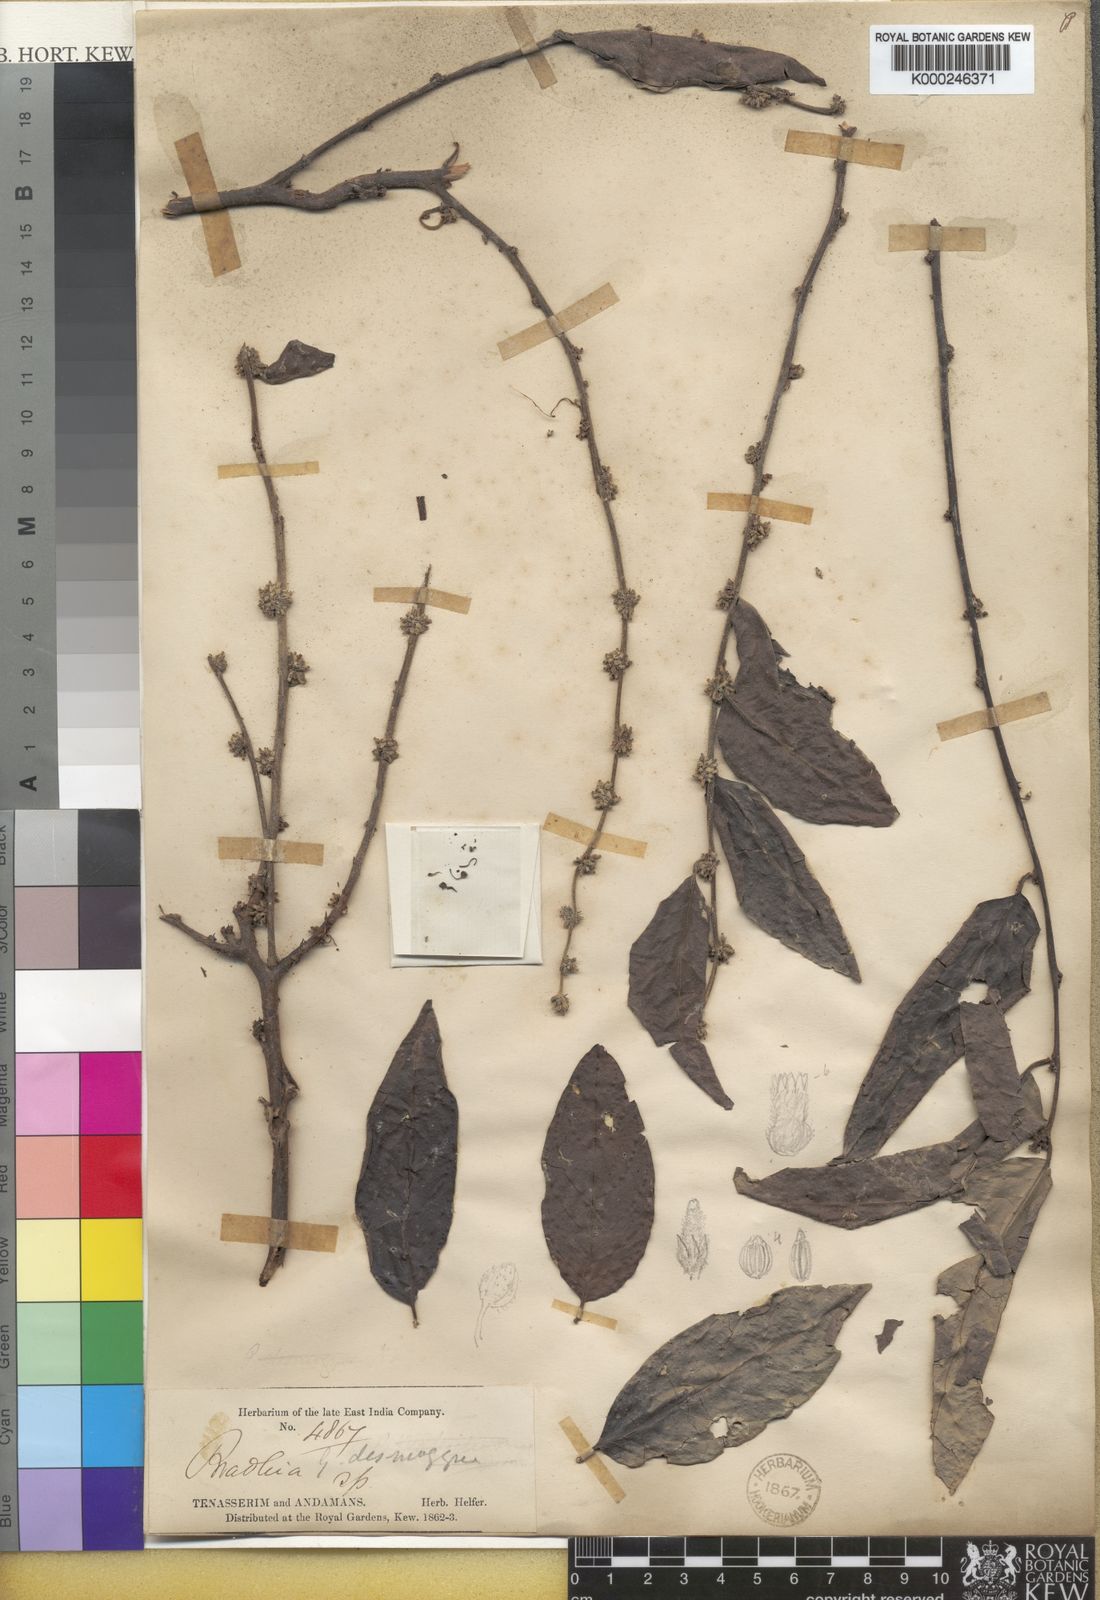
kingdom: Plantae
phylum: Tracheophyta
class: Magnoliopsida
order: Malpighiales
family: Phyllanthaceae
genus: Glochidion
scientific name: Glochidion andamanicum
